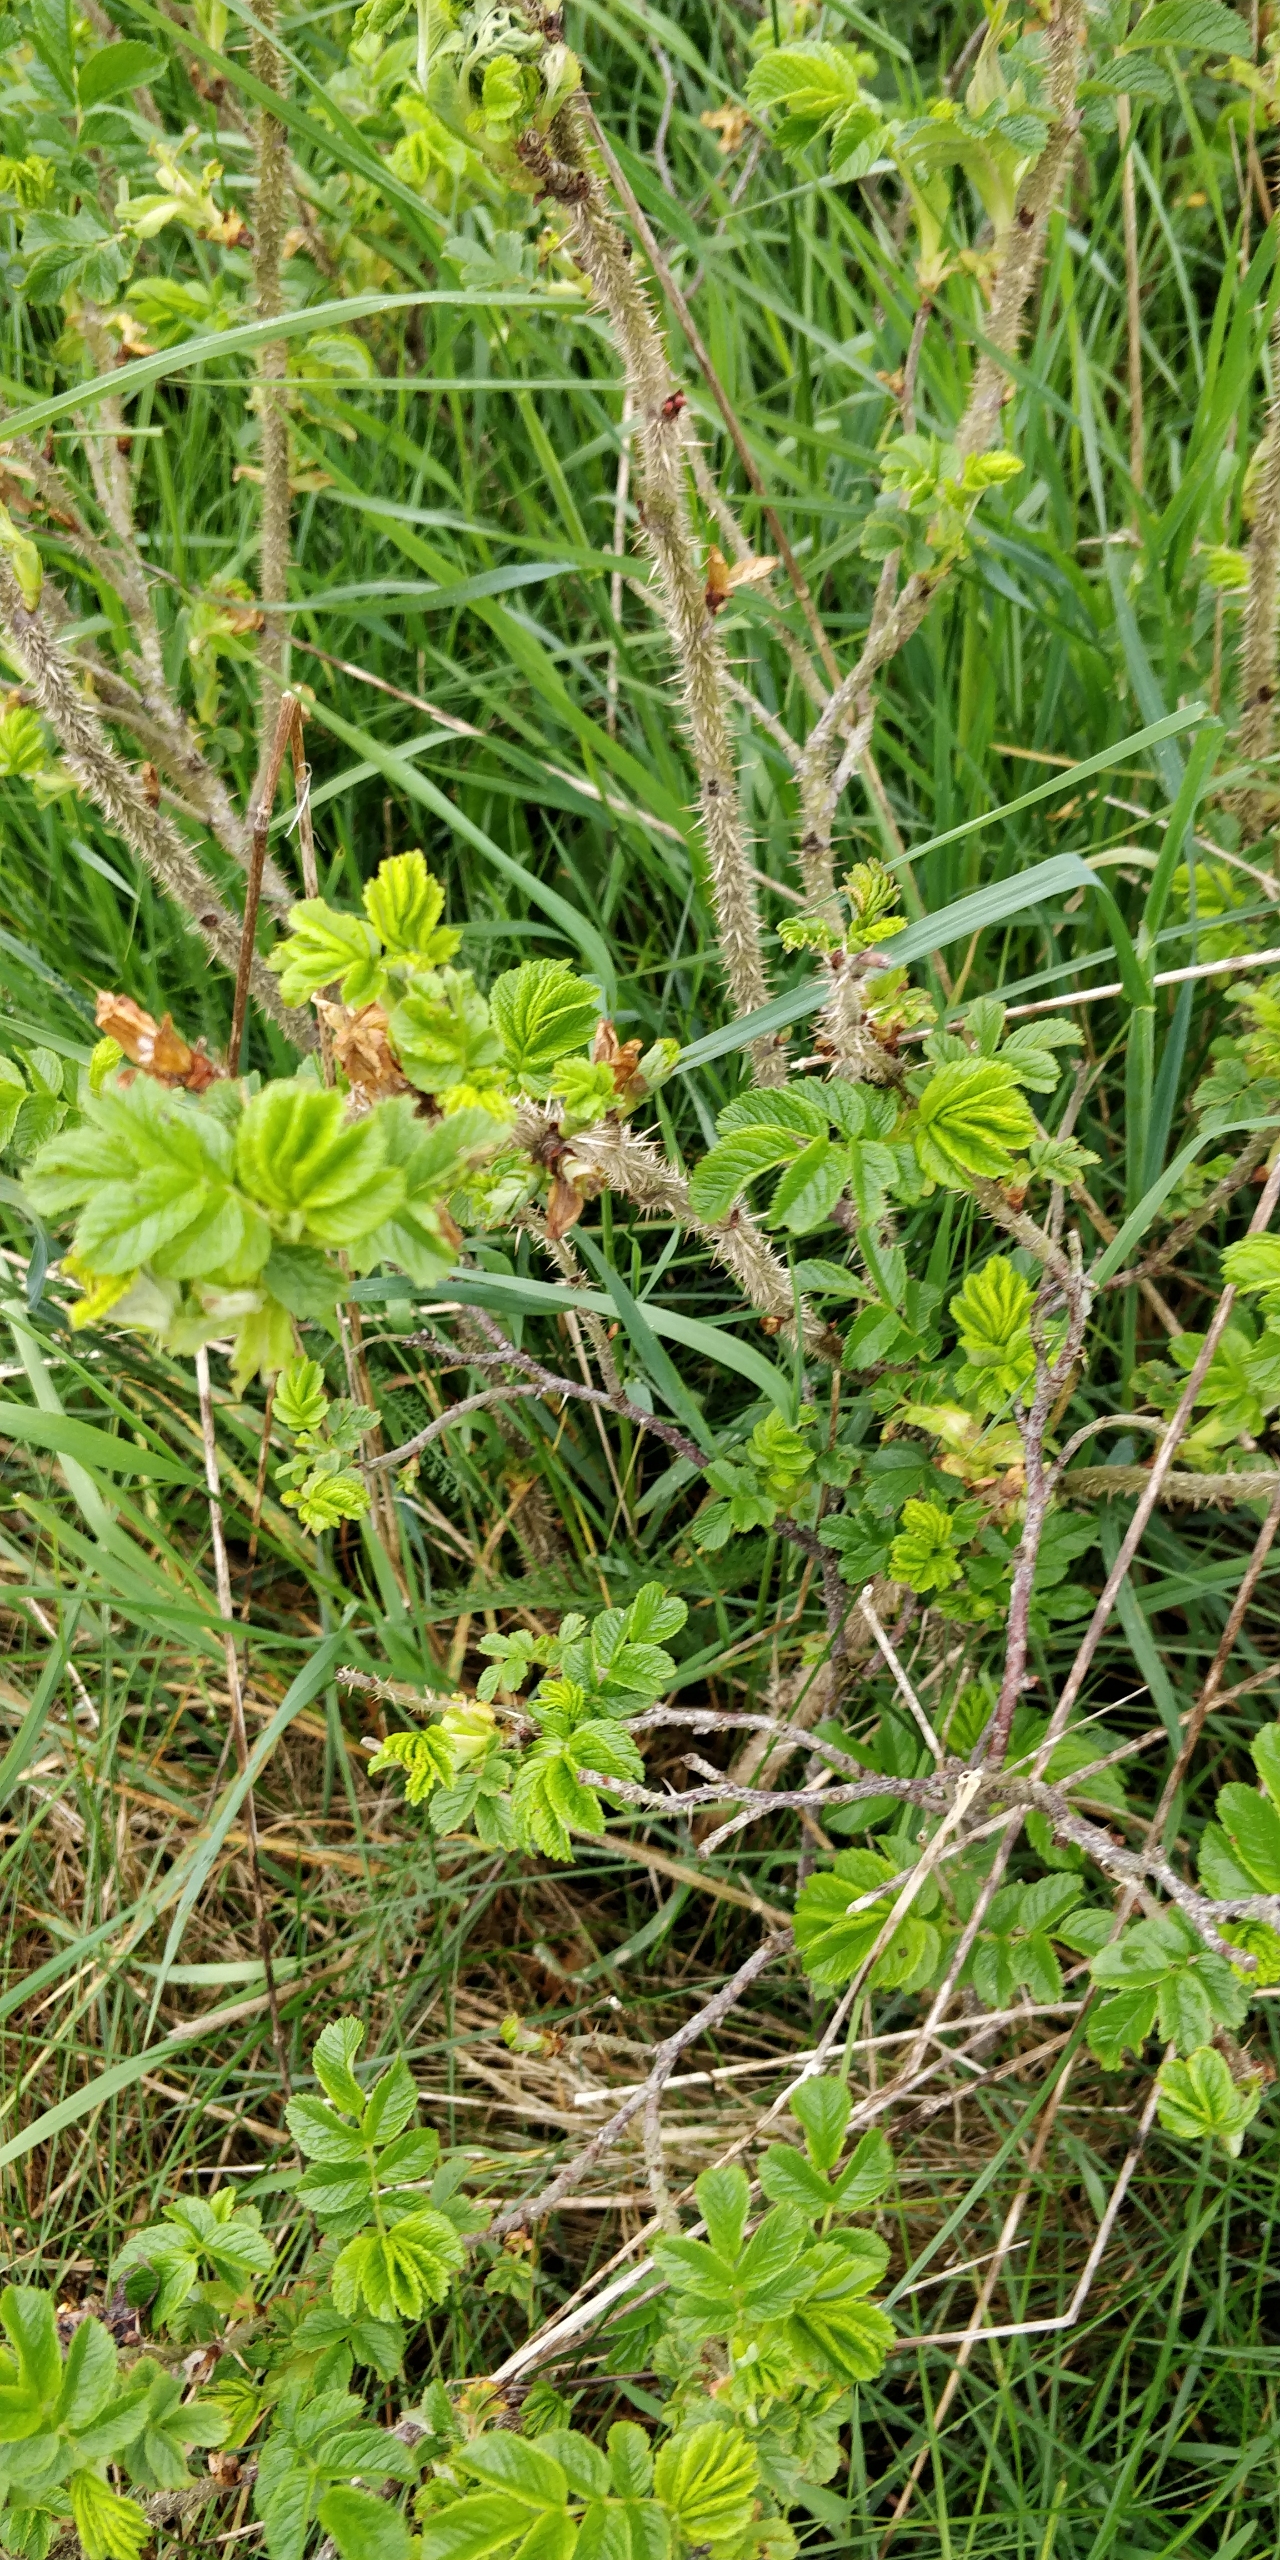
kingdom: Plantae
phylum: Tracheophyta
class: Magnoliopsida
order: Rosales
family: Rosaceae
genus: Rosa
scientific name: Rosa rugosa
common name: Rynket rose
